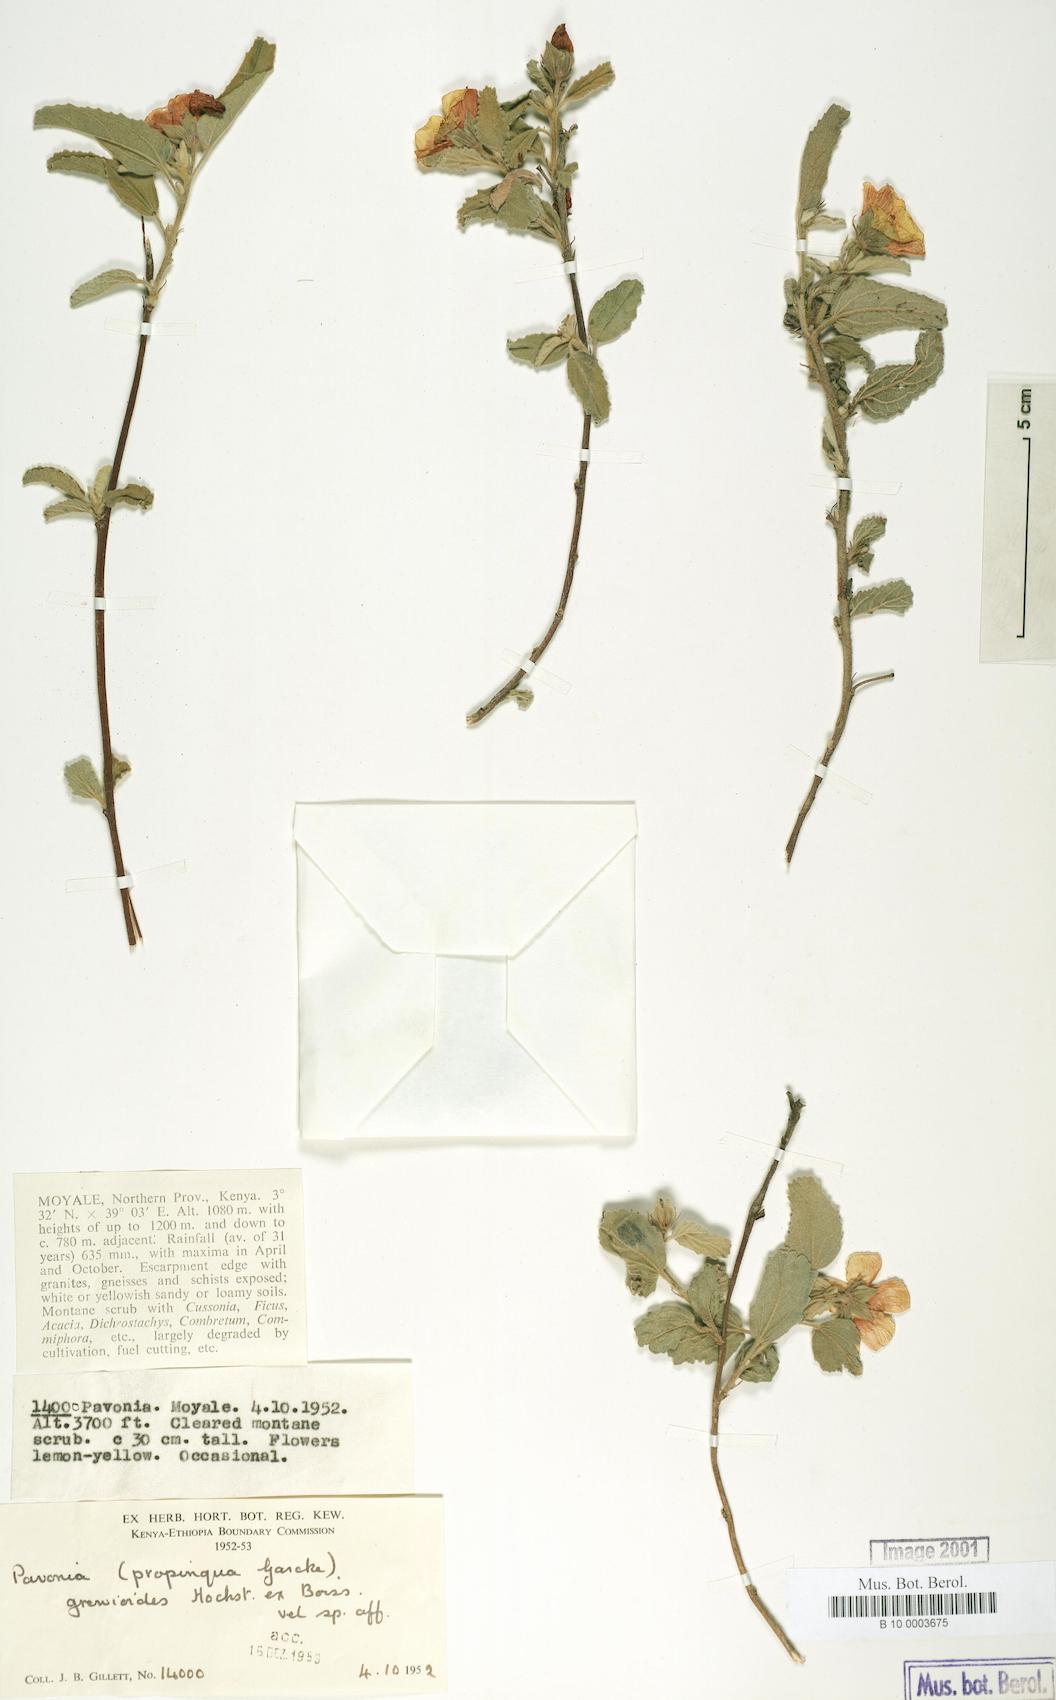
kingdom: Plantae
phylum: Tracheophyta
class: Magnoliopsida
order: Malvales
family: Malvaceae
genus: Pavonia
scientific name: Pavonia propinqua
